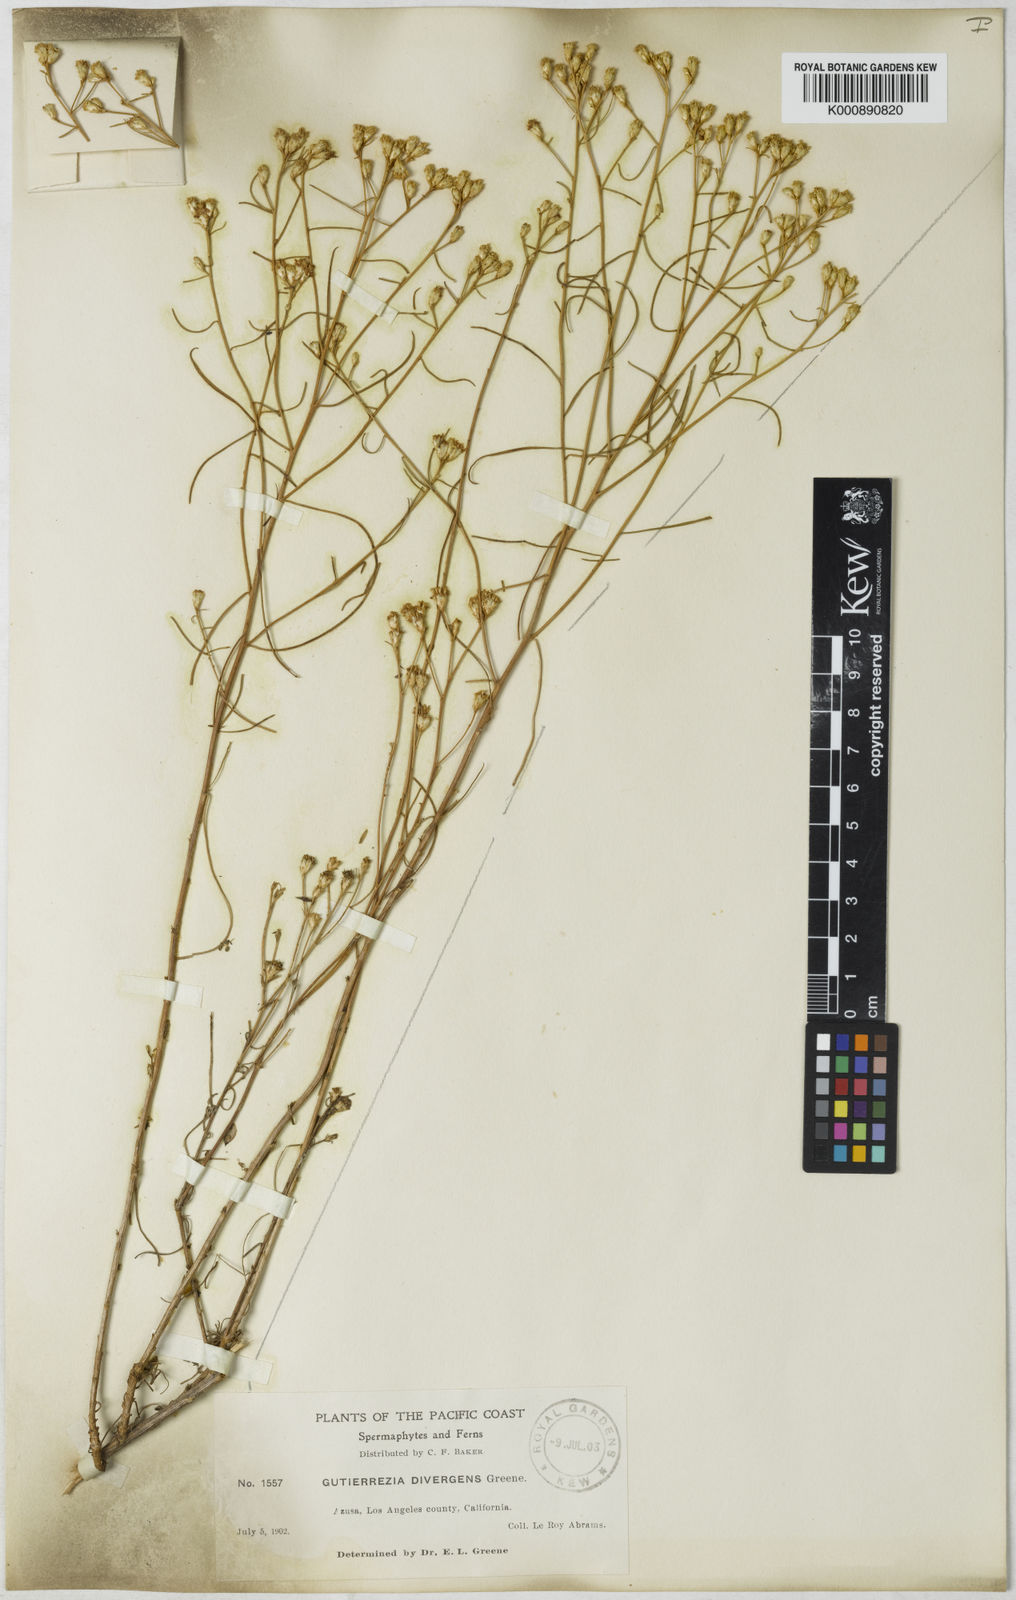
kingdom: Plantae
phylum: Tracheophyta
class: Magnoliopsida
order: Asterales
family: Asteraceae
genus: Gutierrezia
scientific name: Gutierrezia californica
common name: California matchweed
